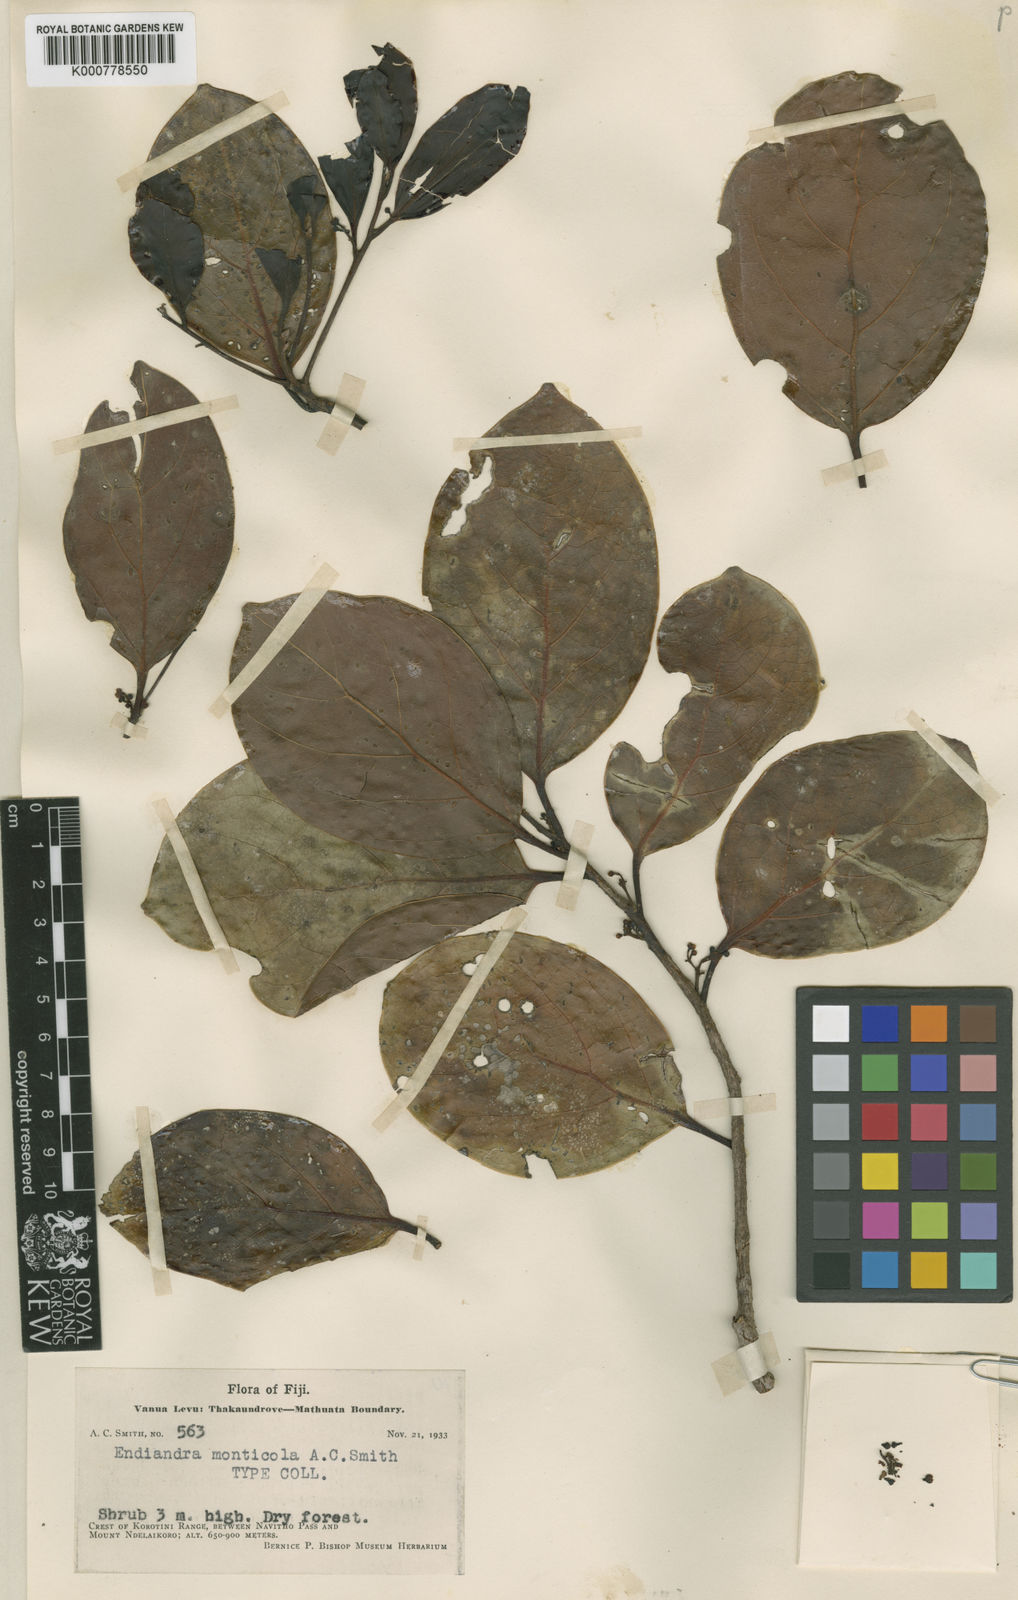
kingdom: Plantae
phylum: Tracheophyta
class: Magnoliopsida
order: Laurales
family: Lauraceae
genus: Endiandra
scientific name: Endiandra monticola
